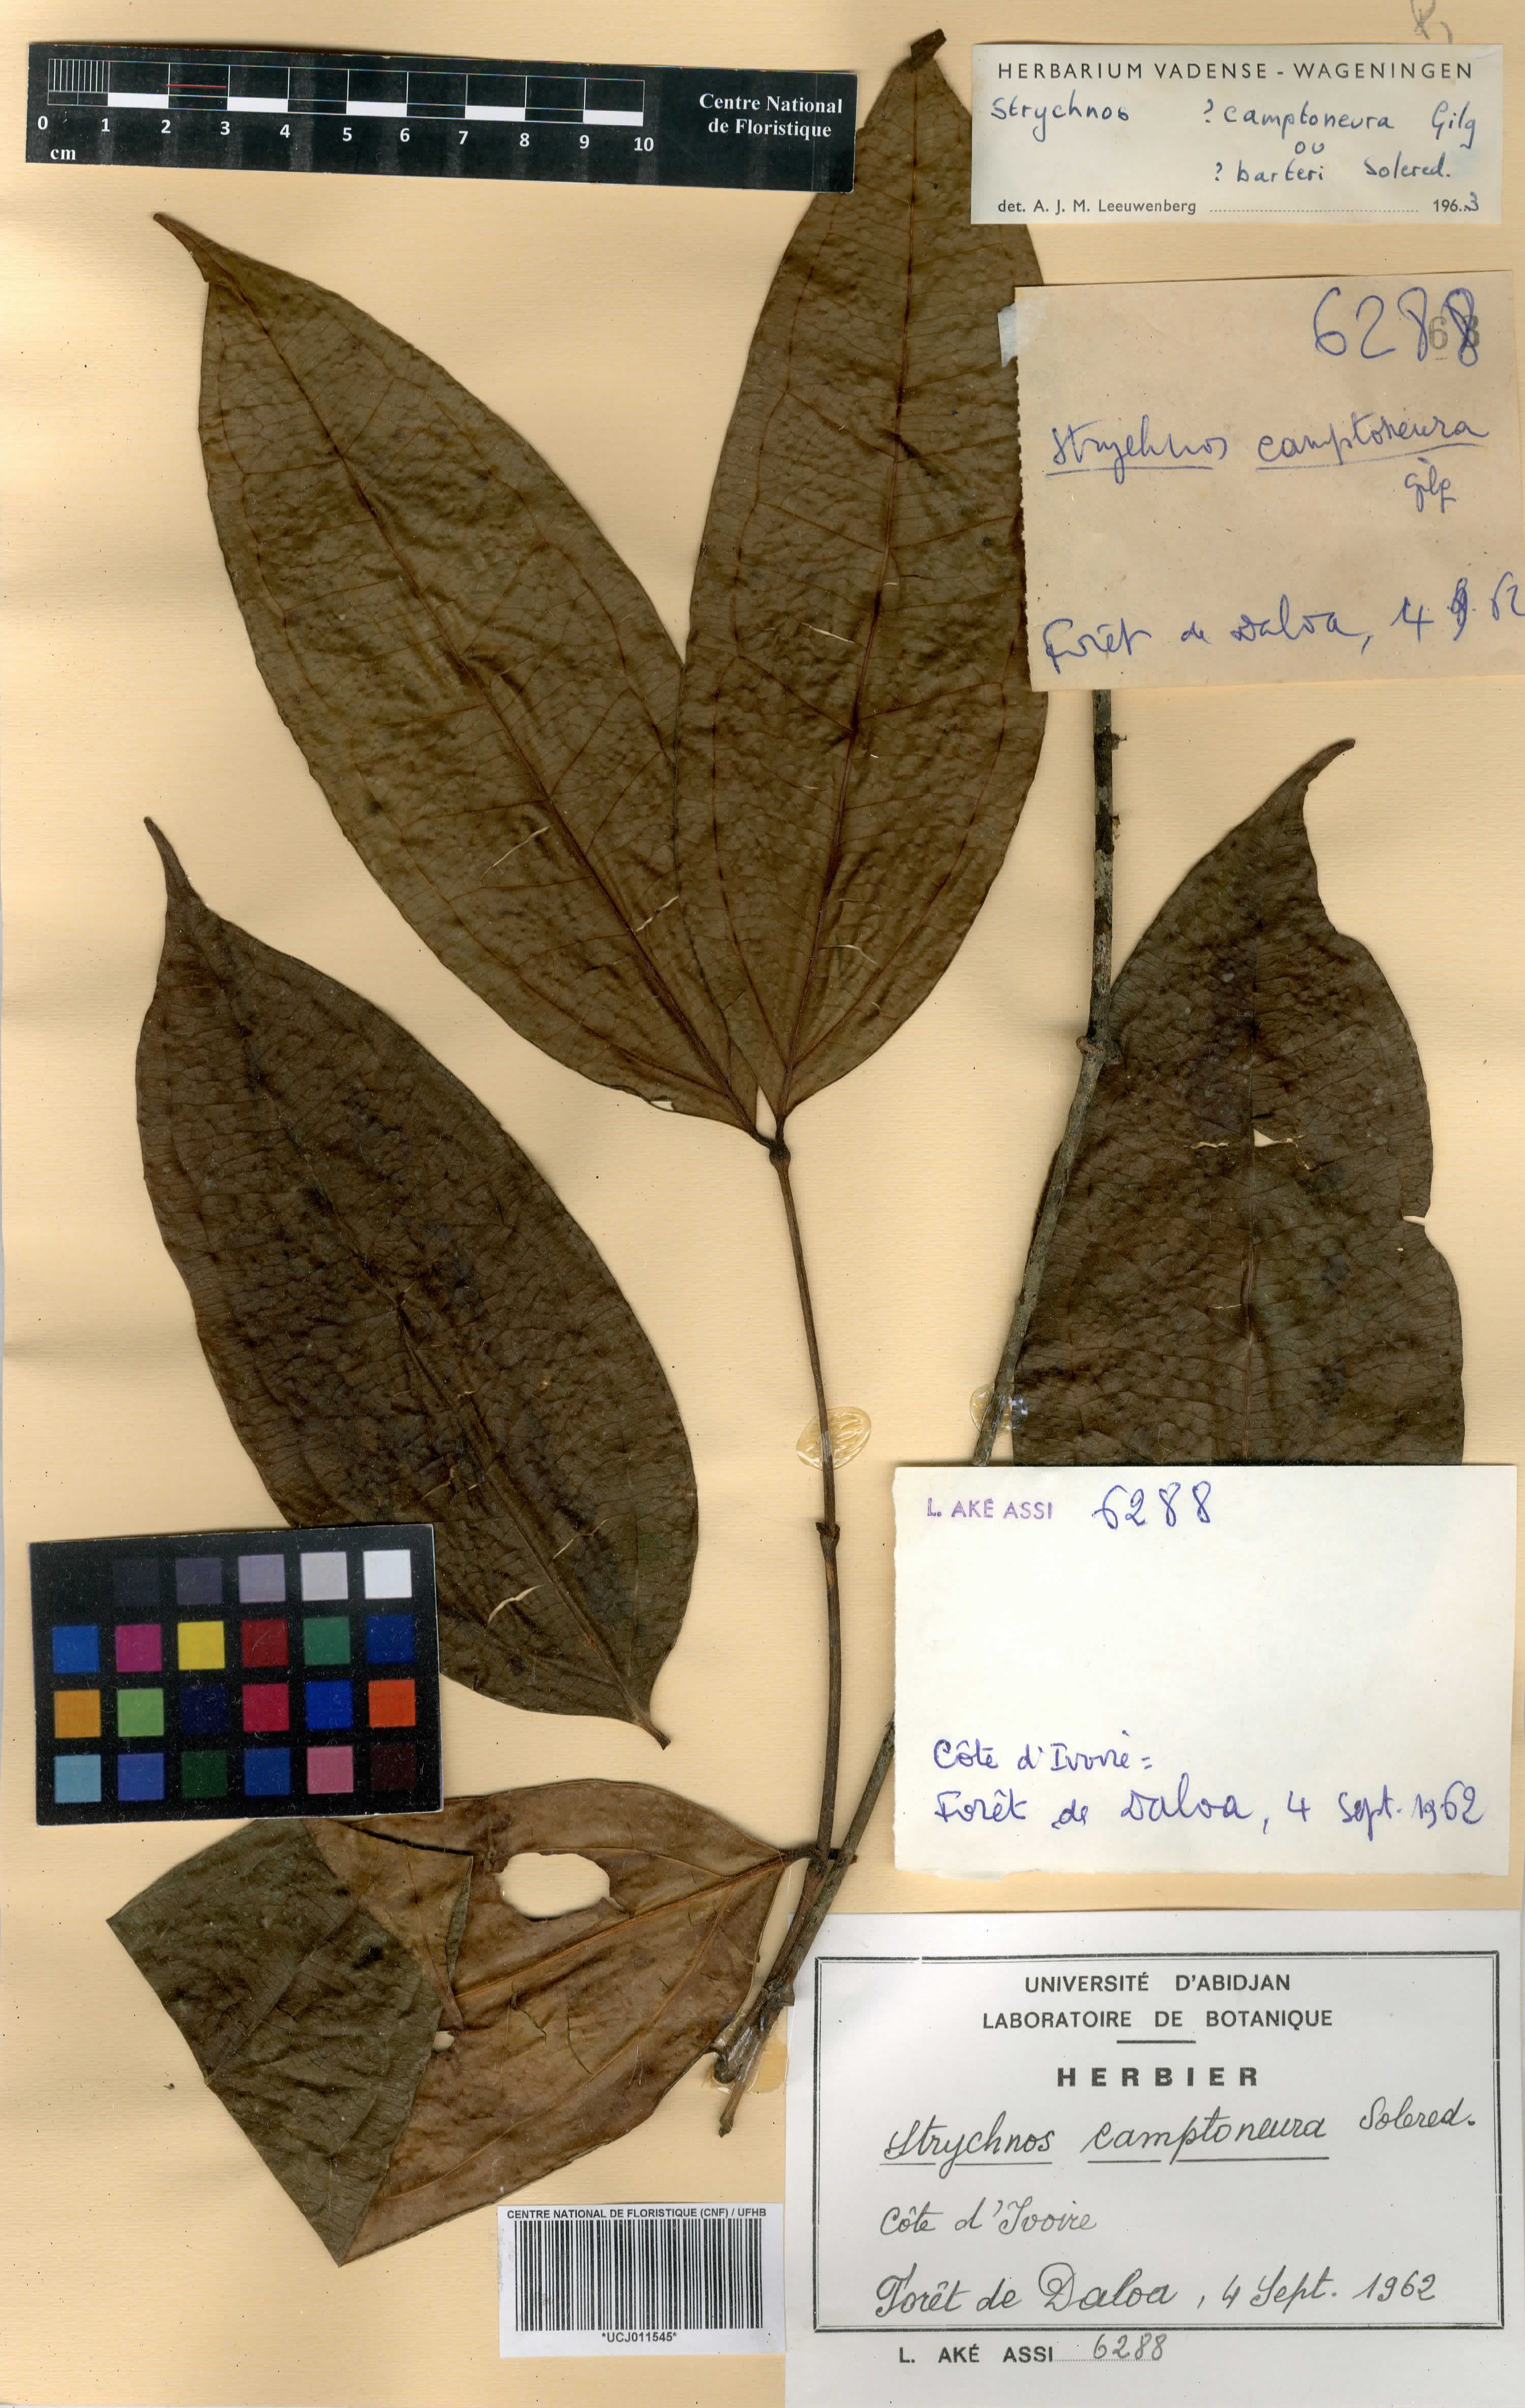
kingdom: Plantae
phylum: Tracheophyta
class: Magnoliopsida
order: Gentianales
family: Loganiaceae
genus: Strychnos
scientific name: Strychnos camptoneura
